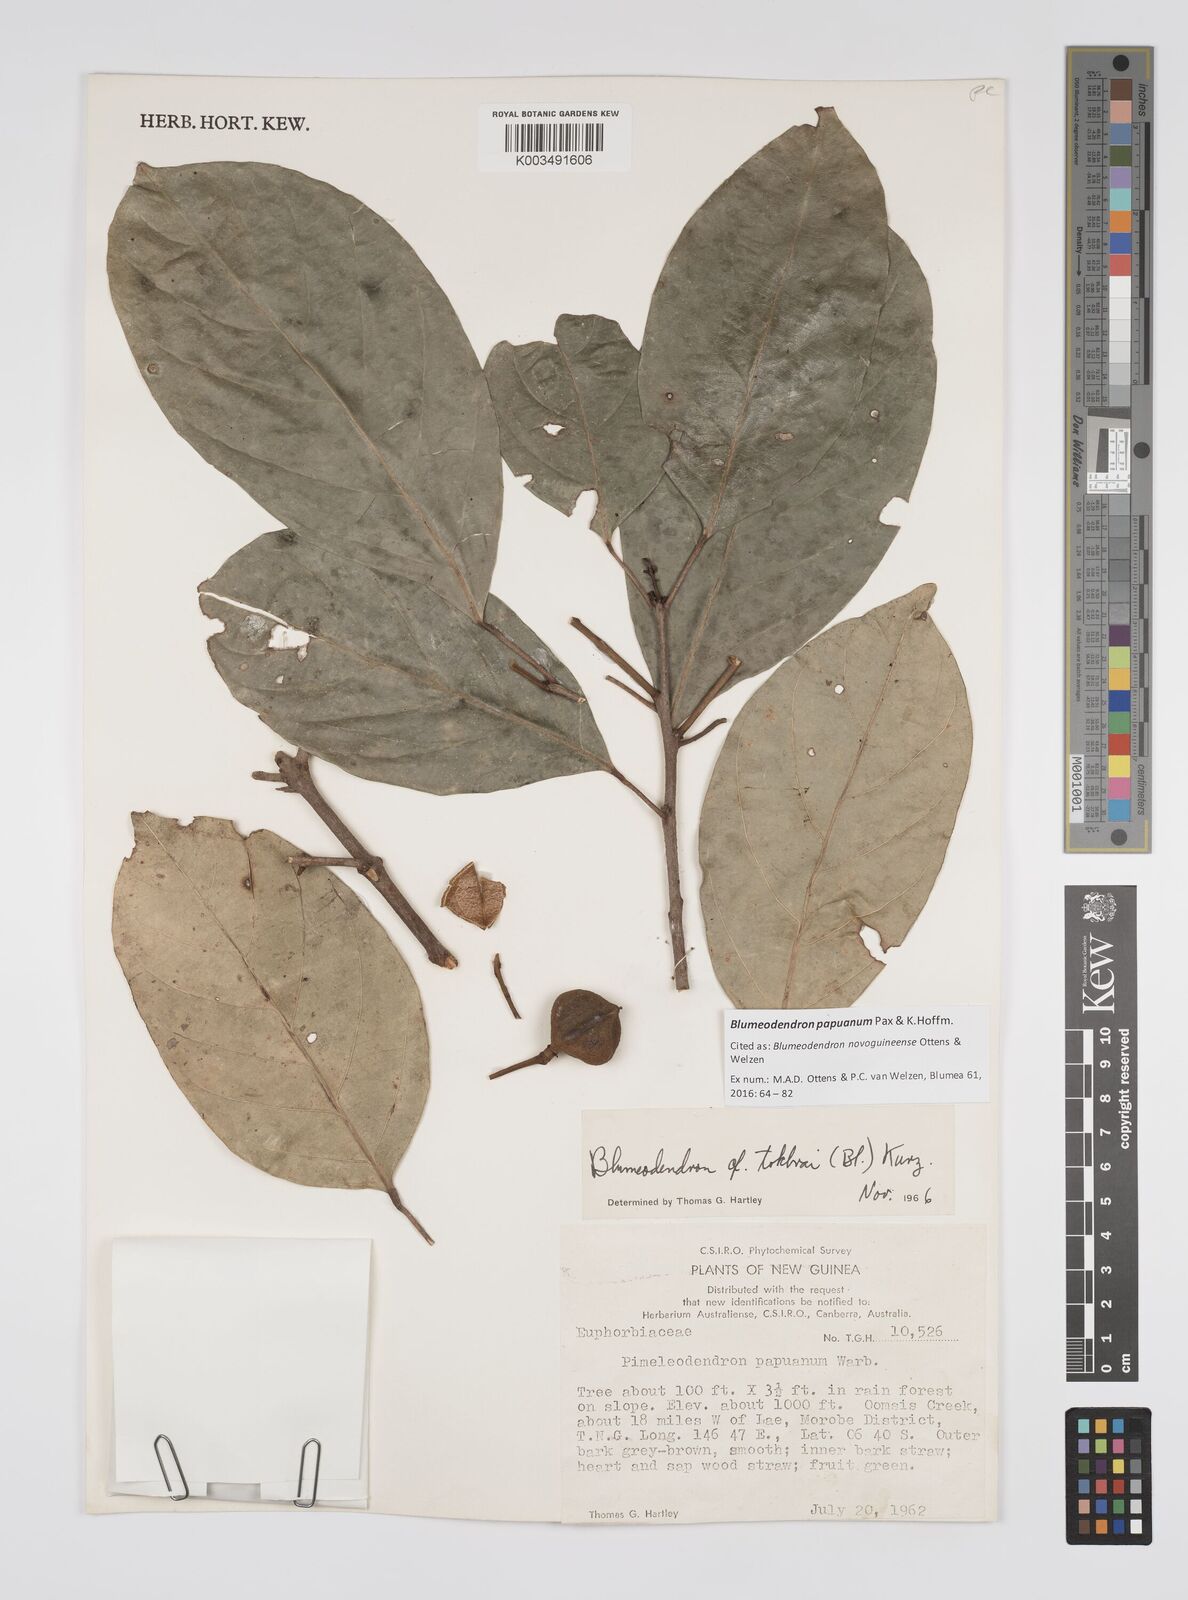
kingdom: Plantae
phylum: Tracheophyta
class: Magnoliopsida
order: Malpighiales
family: Euphorbiaceae
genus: Blumeodendron
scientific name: Blumeodendron papuanum
